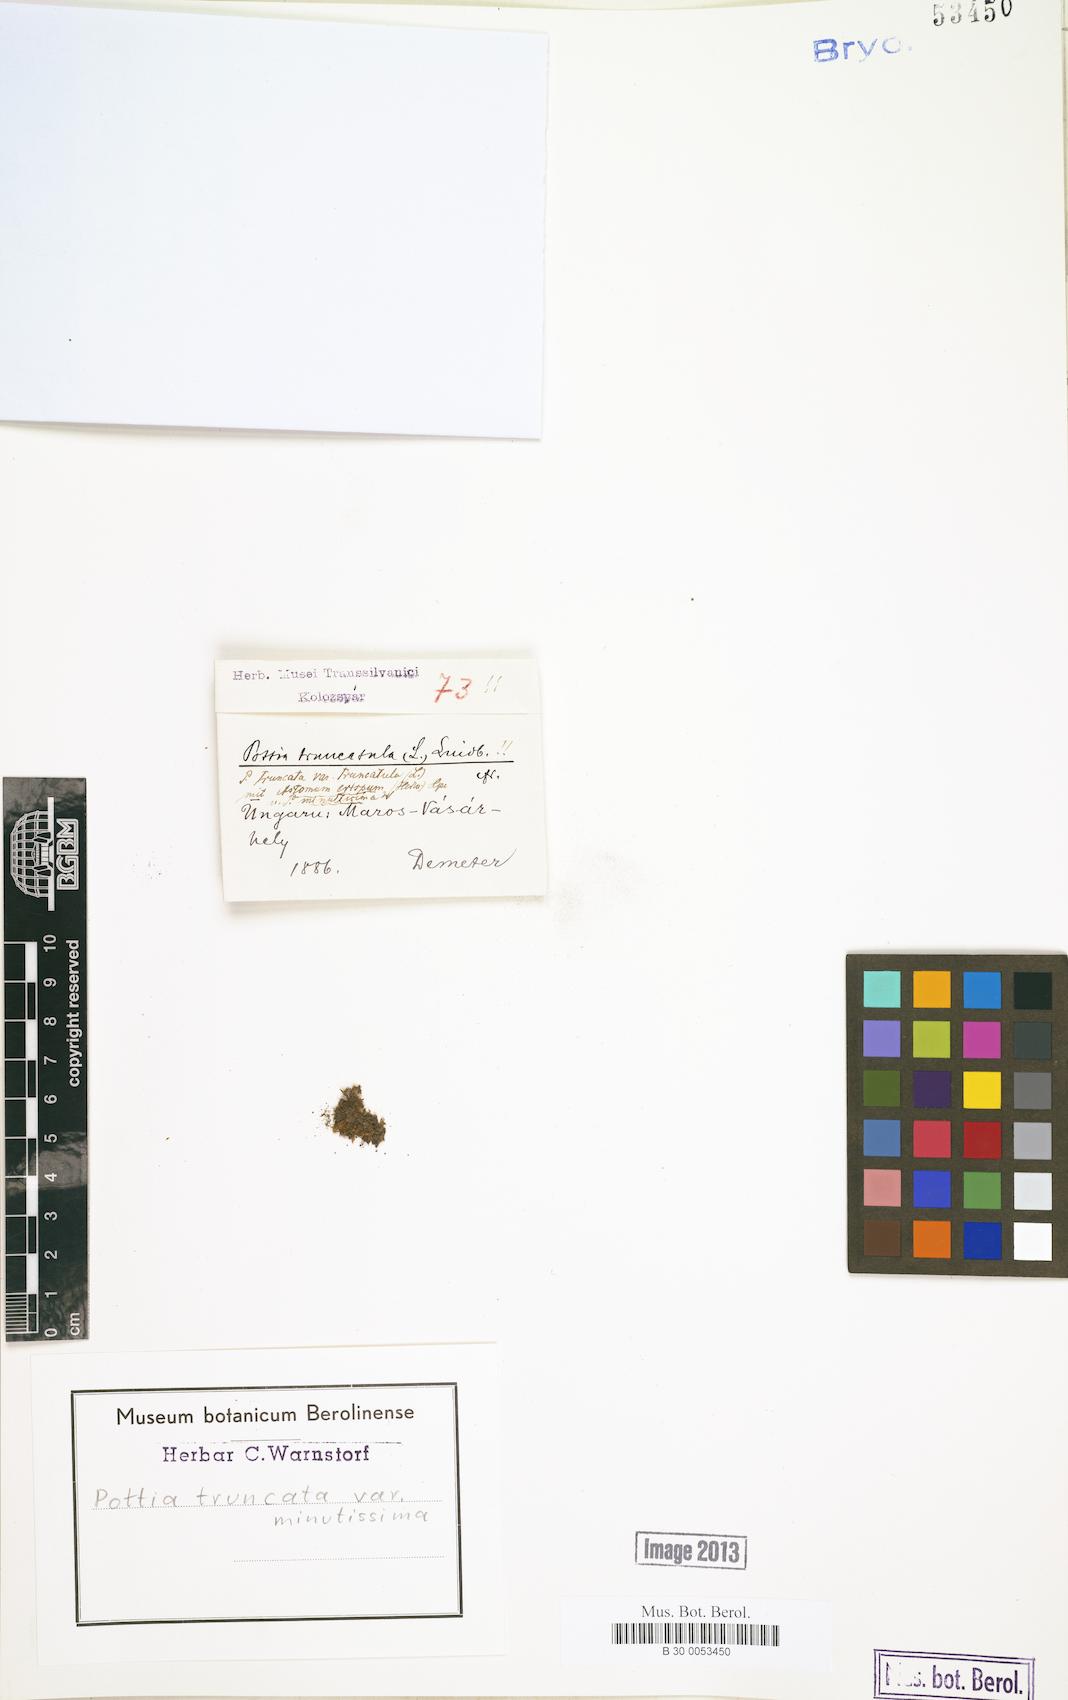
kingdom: Plantae
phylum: Bryophyta
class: Bryopsida
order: Pottiales
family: Pottiaceae
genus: Tortula
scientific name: Tortula truncata
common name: Truncated screw moss
